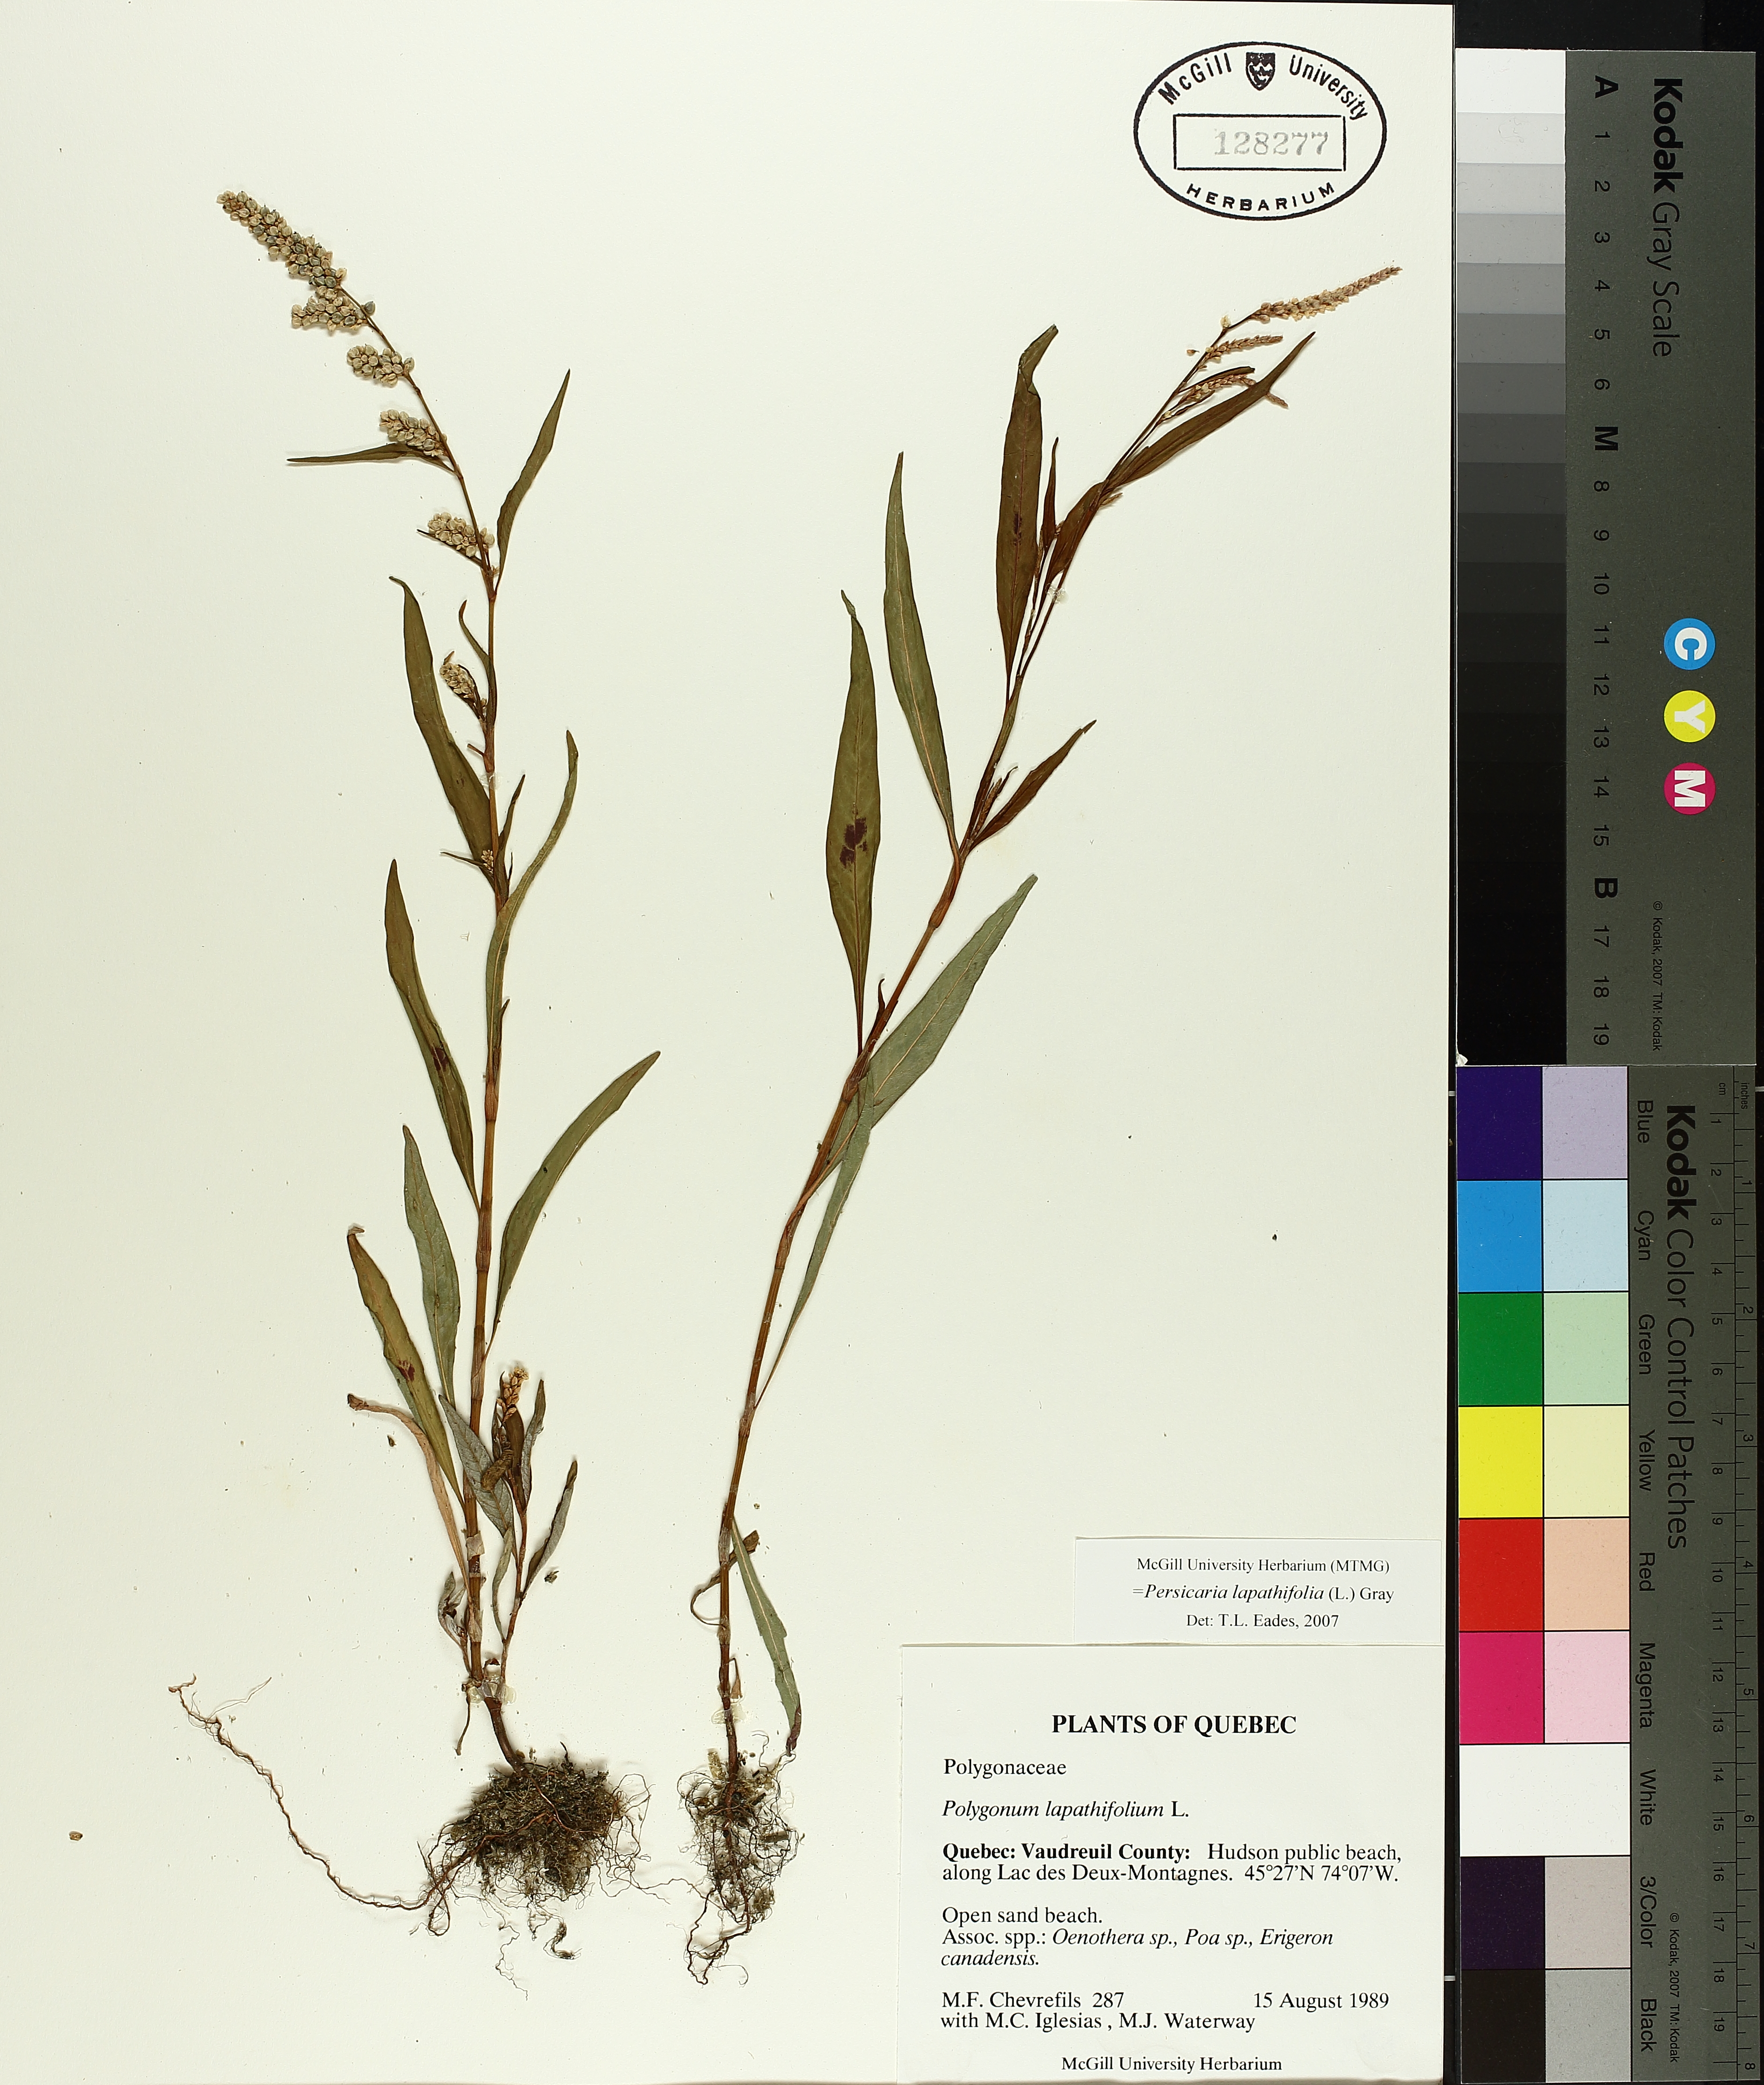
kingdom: Plantae
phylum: Tracheophyta
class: Magnoliopsida
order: Caryophyllales
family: Polygonaceae
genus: Persicaria
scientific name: Persicaria lapathifolia
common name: Curlytop knotweed
